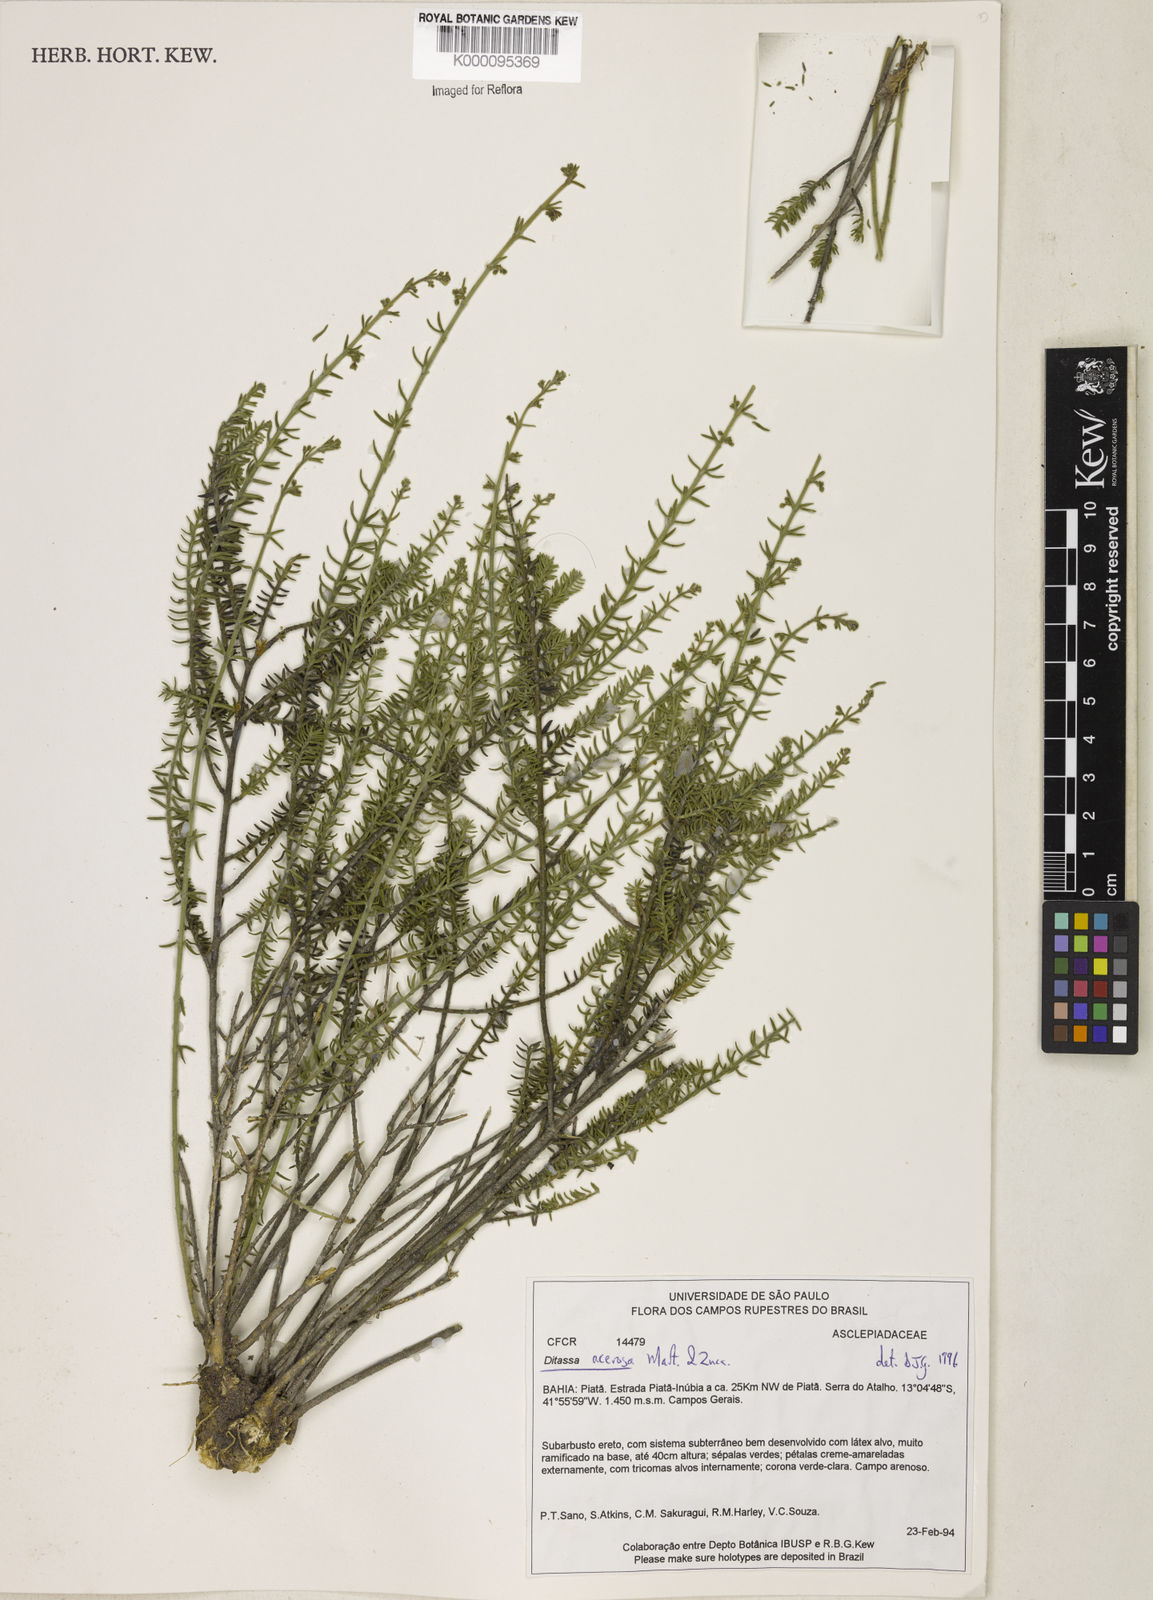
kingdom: Plantae
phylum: Tracheophyta
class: Magnoliopsida
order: Gentianales
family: Apocynaceae
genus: Minaria
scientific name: Minaria acerosa
